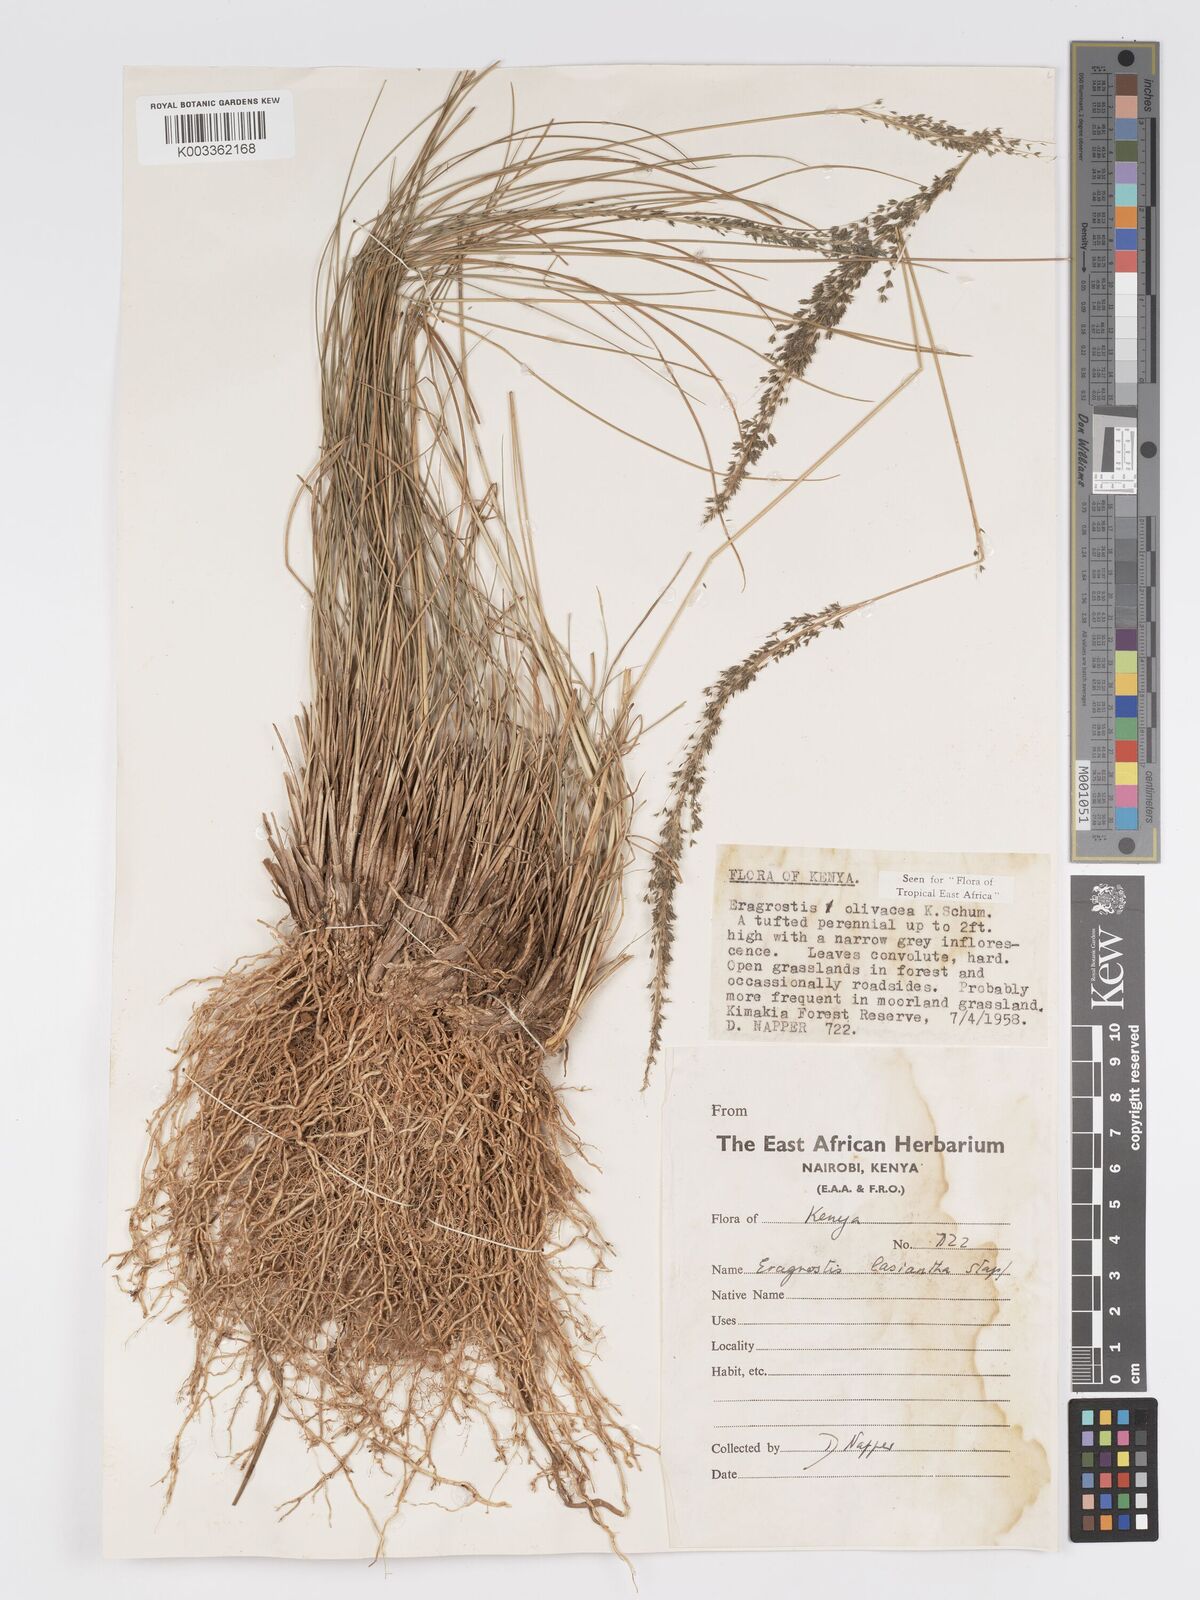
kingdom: Plantae
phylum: Tracheophyta
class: Liliopsida
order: Poales
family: Poaceae
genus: Eragrostis
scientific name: Eragrostis olivacea
